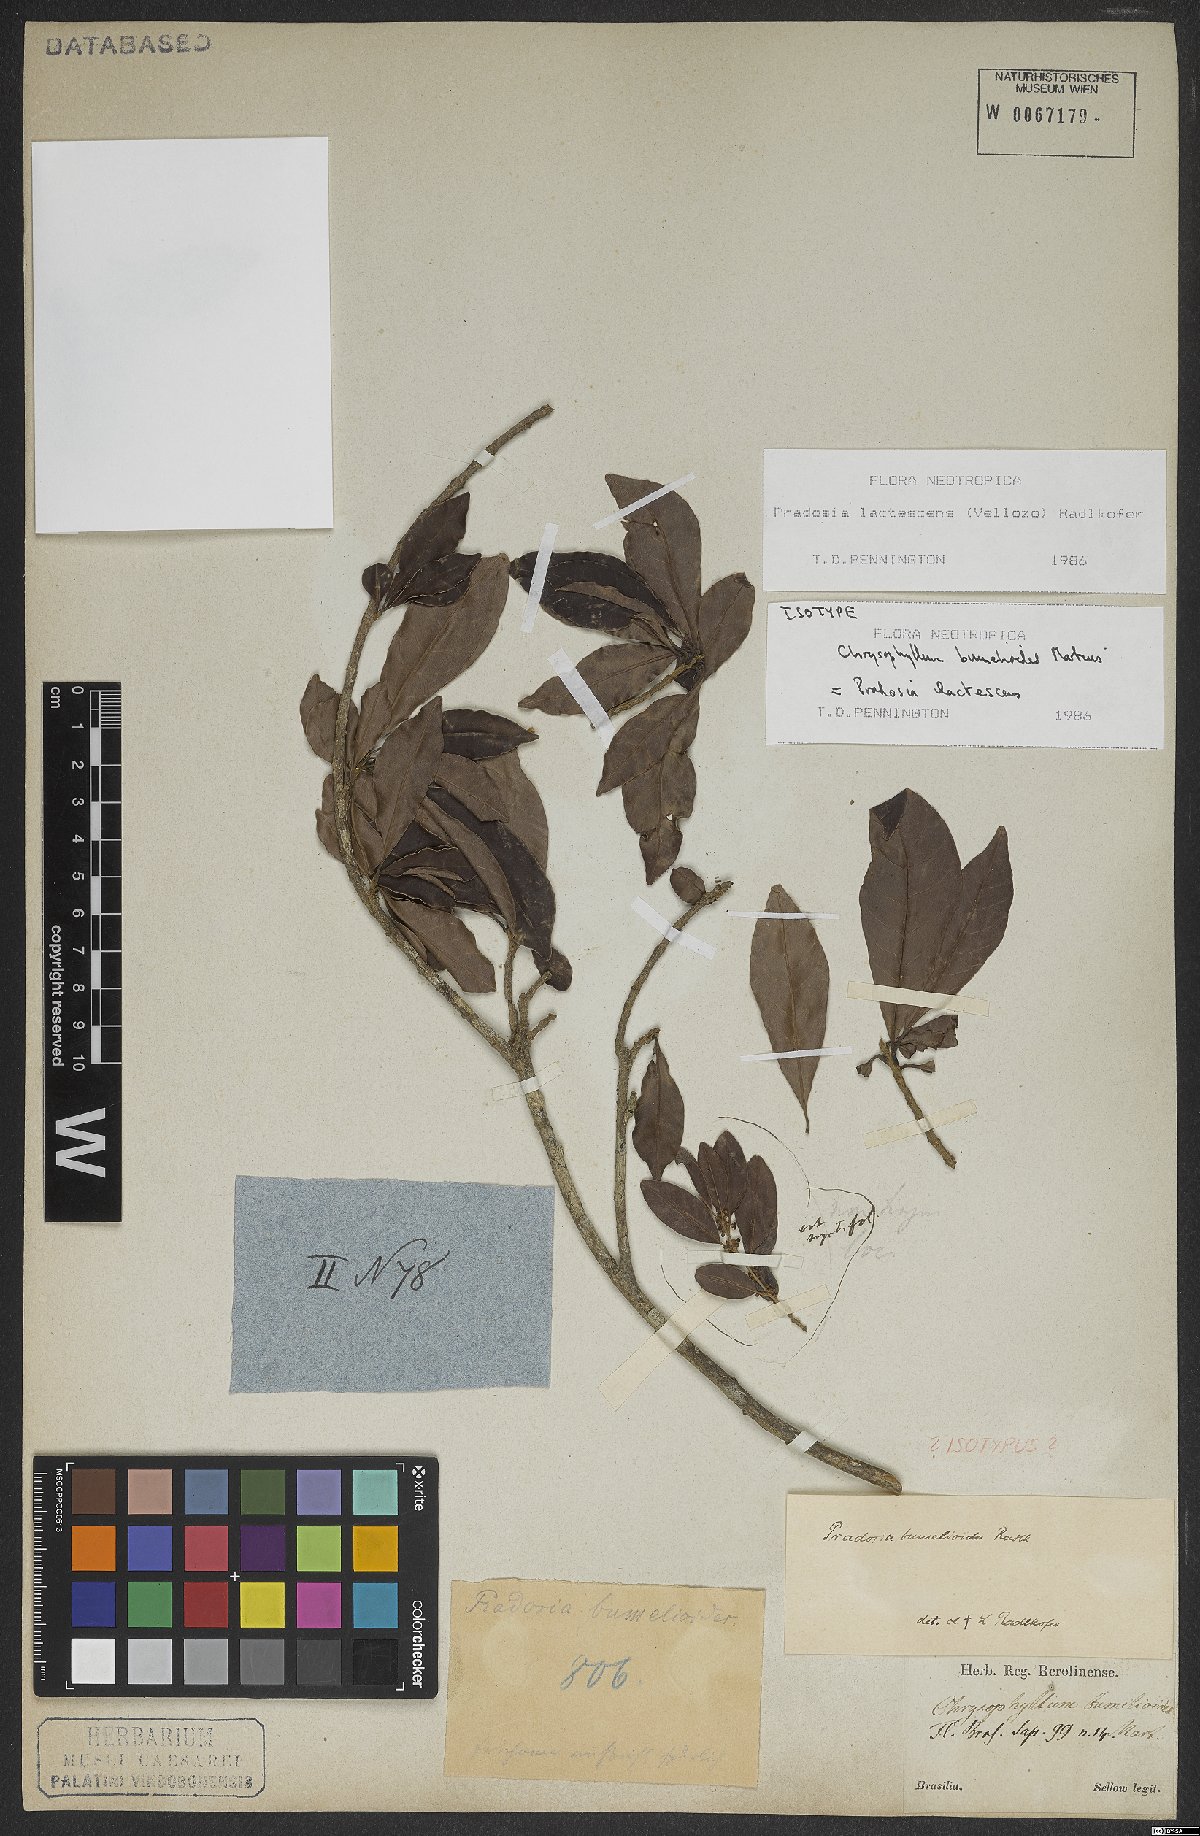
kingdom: Plantae
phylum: Tracheophyta
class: Magnoliopsida
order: Ericales
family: Sapotaceae
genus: Pradosia
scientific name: Pradosia lactescens
